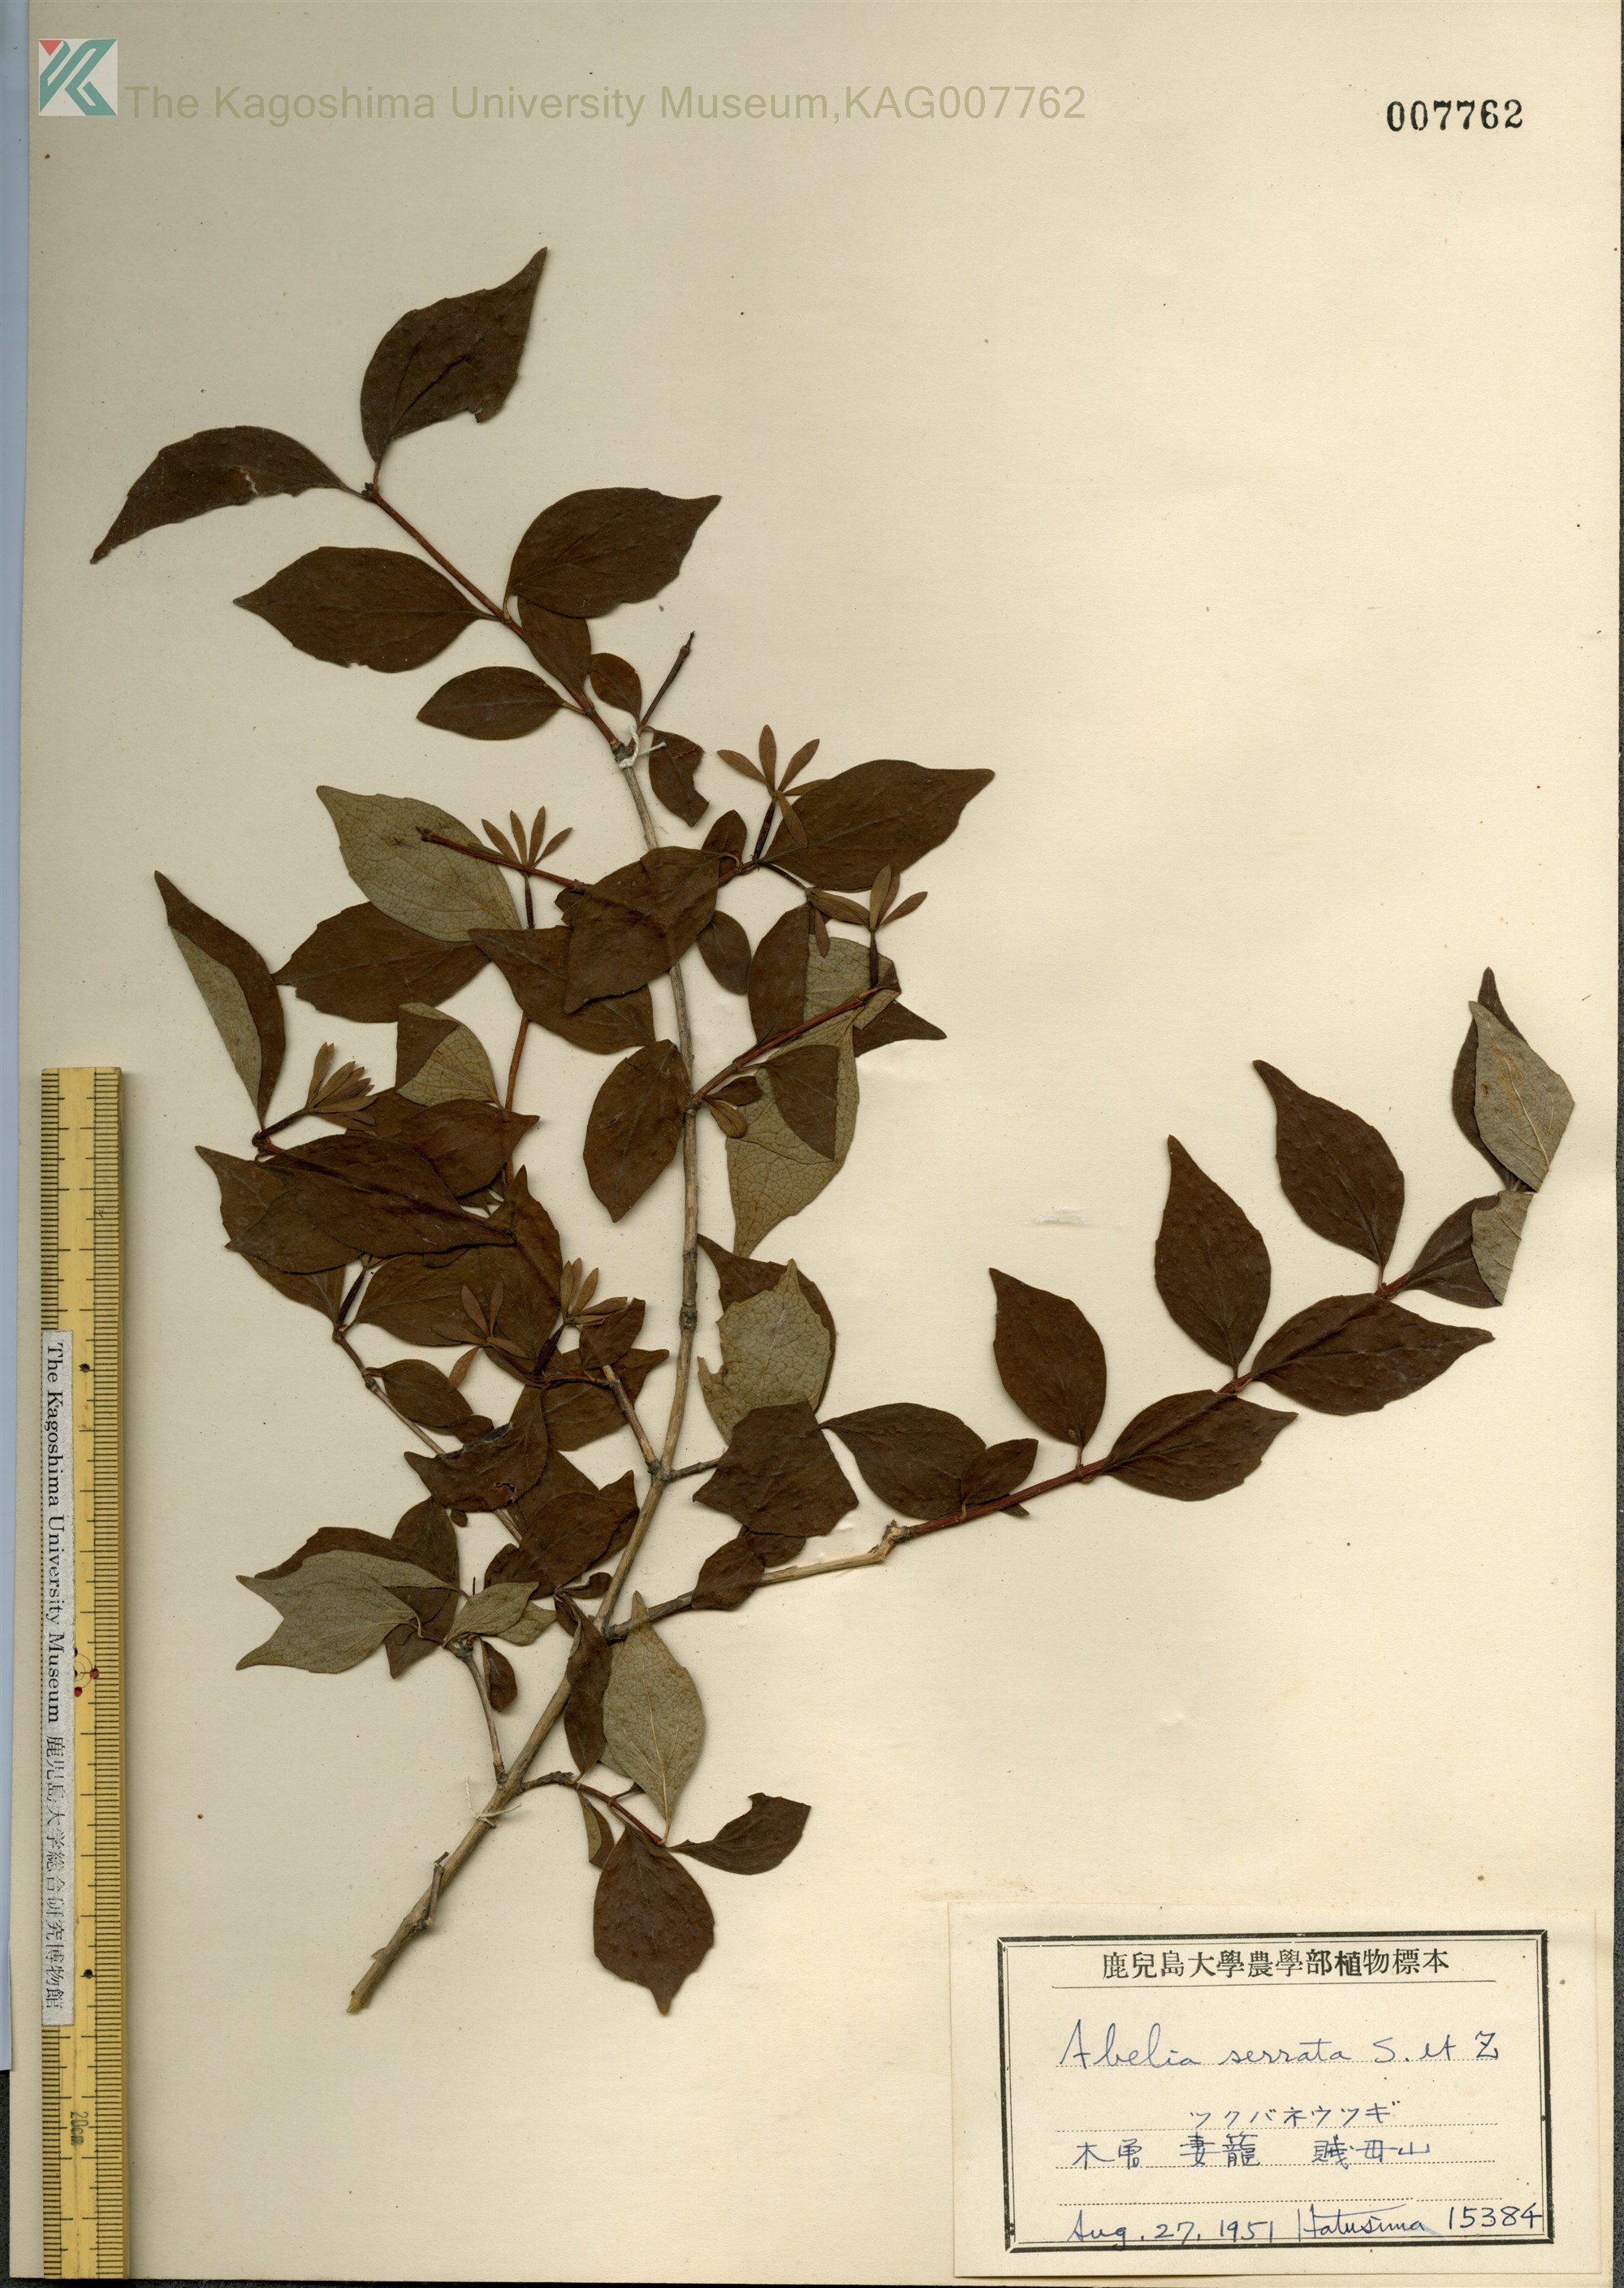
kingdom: Plantae
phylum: Tracheophyta
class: Magnoliopsida
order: Dipsacales
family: Caprifoliaceae
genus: Diabelia
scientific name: Diabelia spathulata
